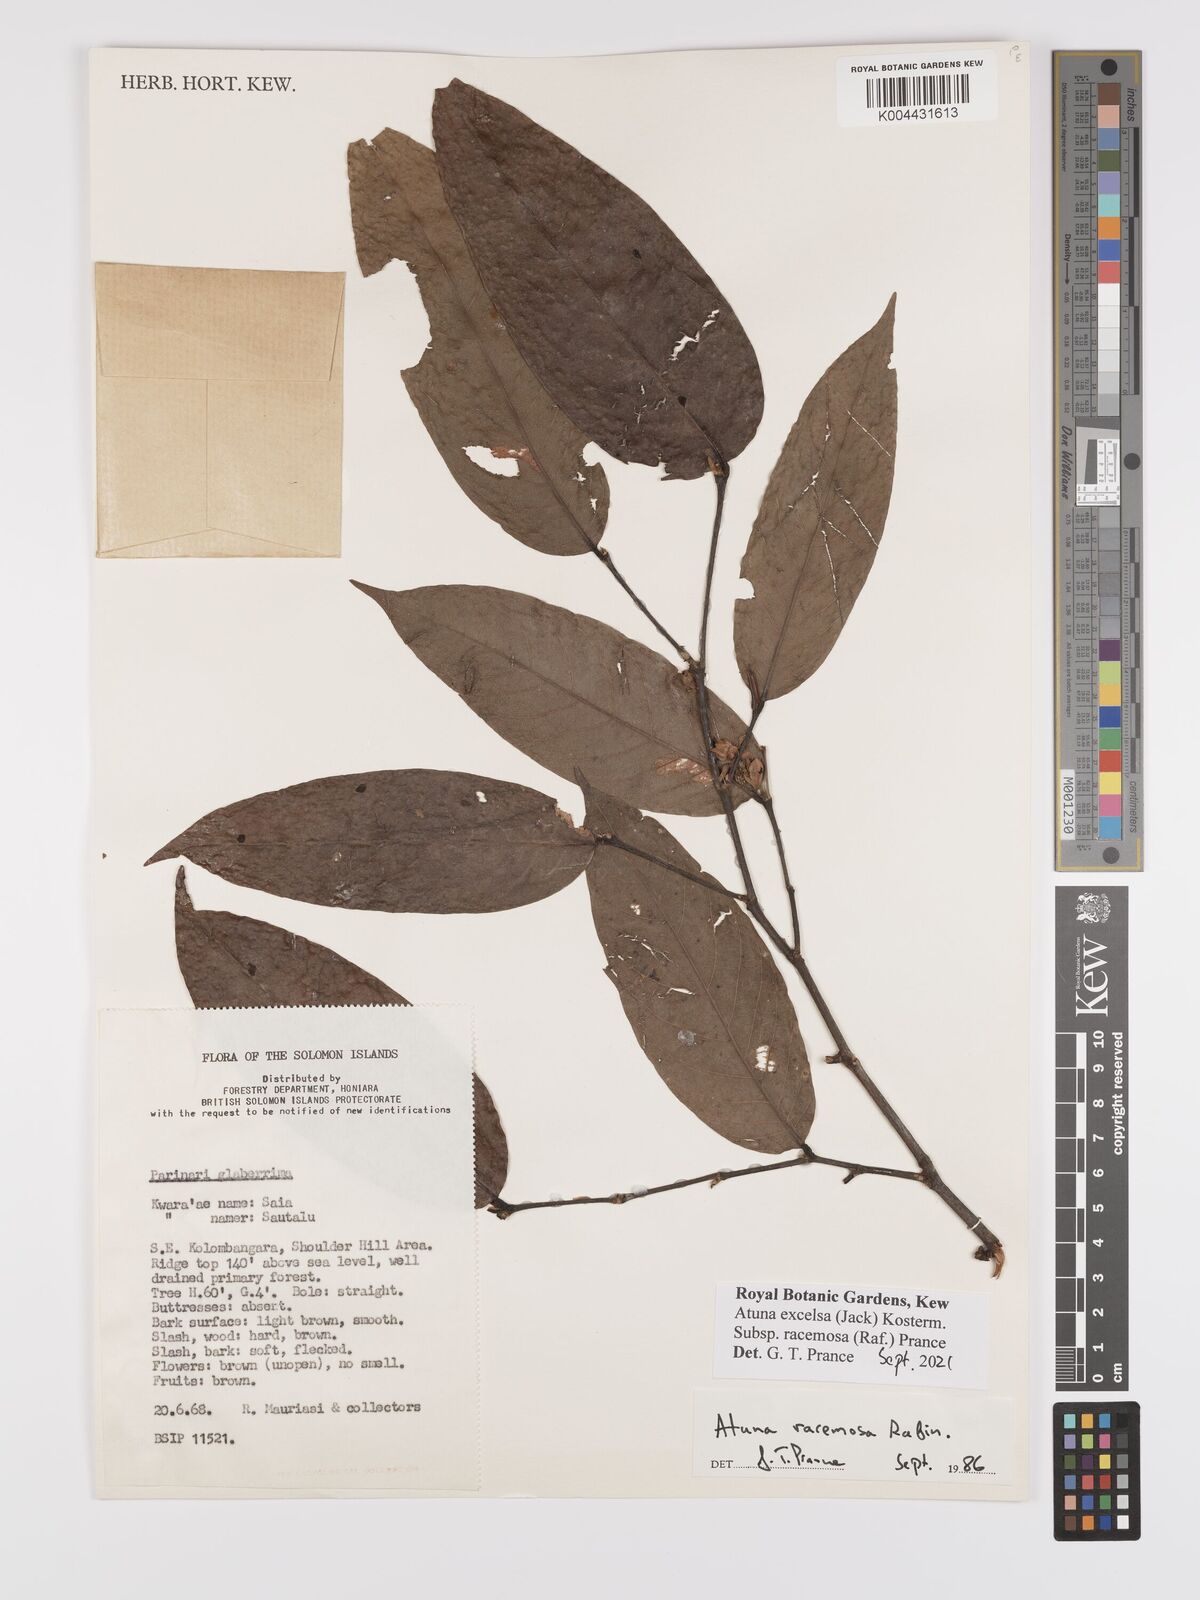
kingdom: Plantae
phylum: Tracheophyta
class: Magnoliopsida
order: Malpighiales
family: Chrysobalanaceae
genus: Atuna
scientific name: Atuna excelsa
